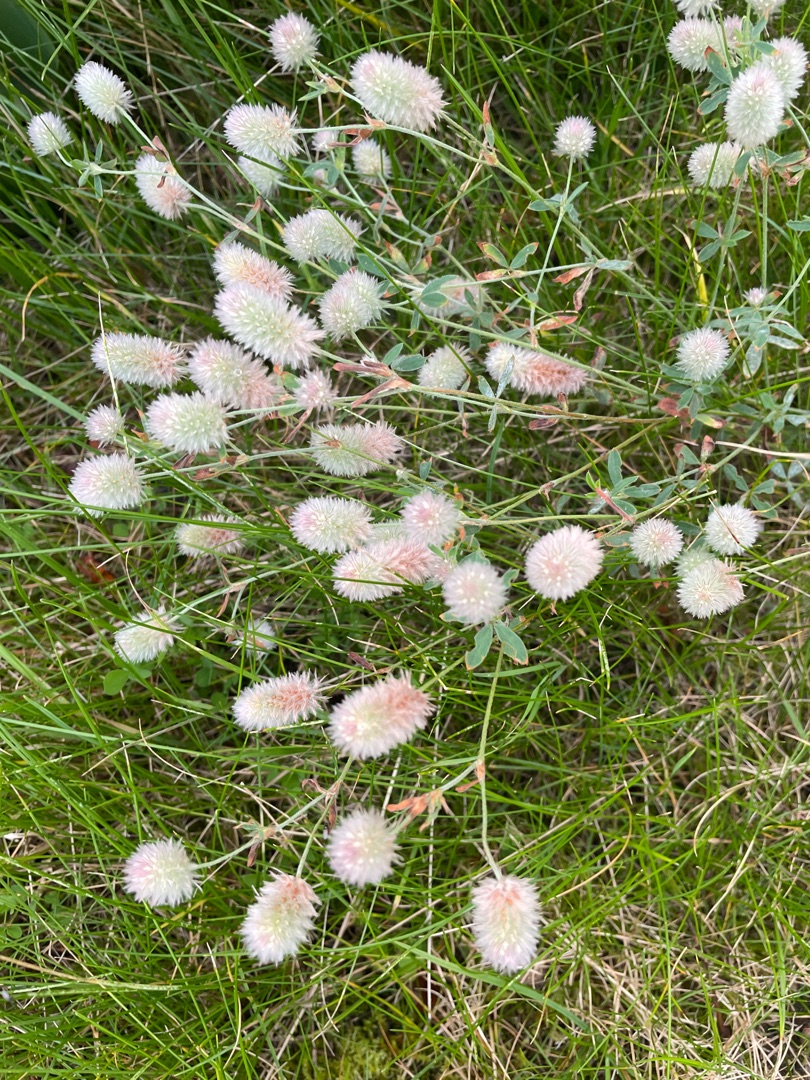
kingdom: Plantae
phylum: Tracheophyta
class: Magnoliopsida
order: Fabales
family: Fabaceae
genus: Trifolium
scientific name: Trifolium arvense
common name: Hare-kløver
